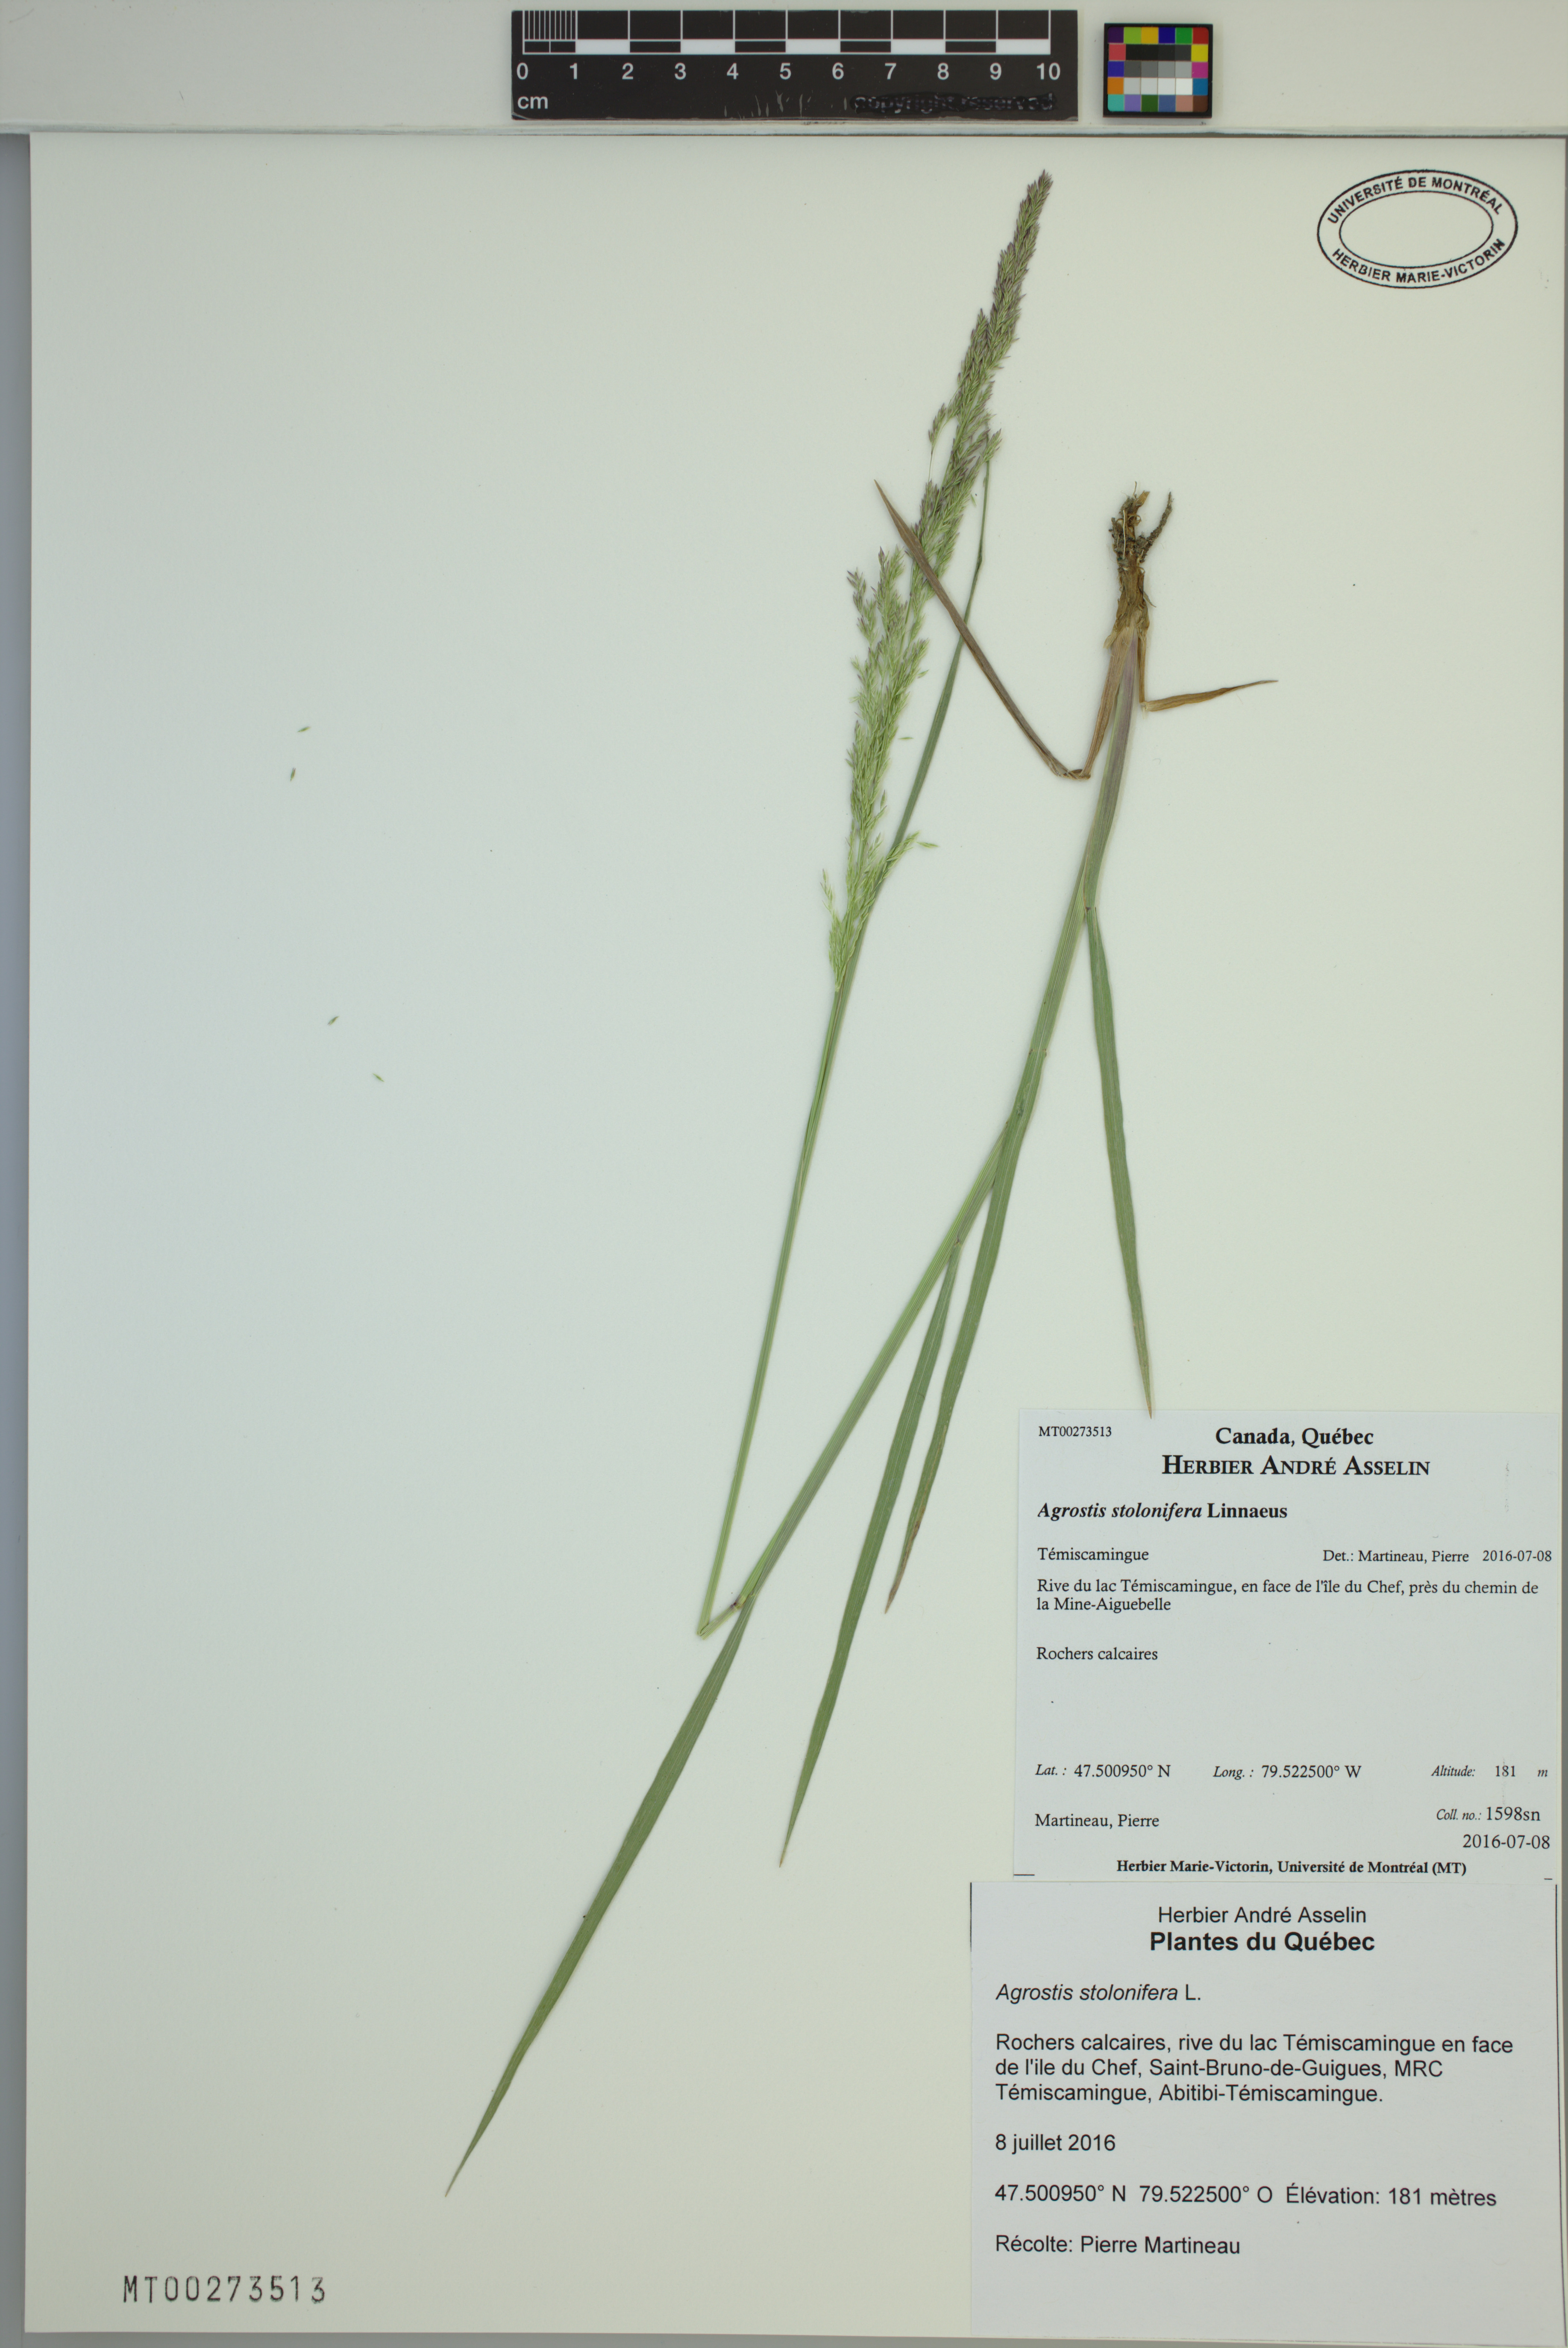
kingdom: Plantae
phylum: Tracheophyta
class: Liliopsida
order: Poales
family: Poaceae
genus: Agrostis
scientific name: Agrostis stolonifera
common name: Creeping bentgrass
